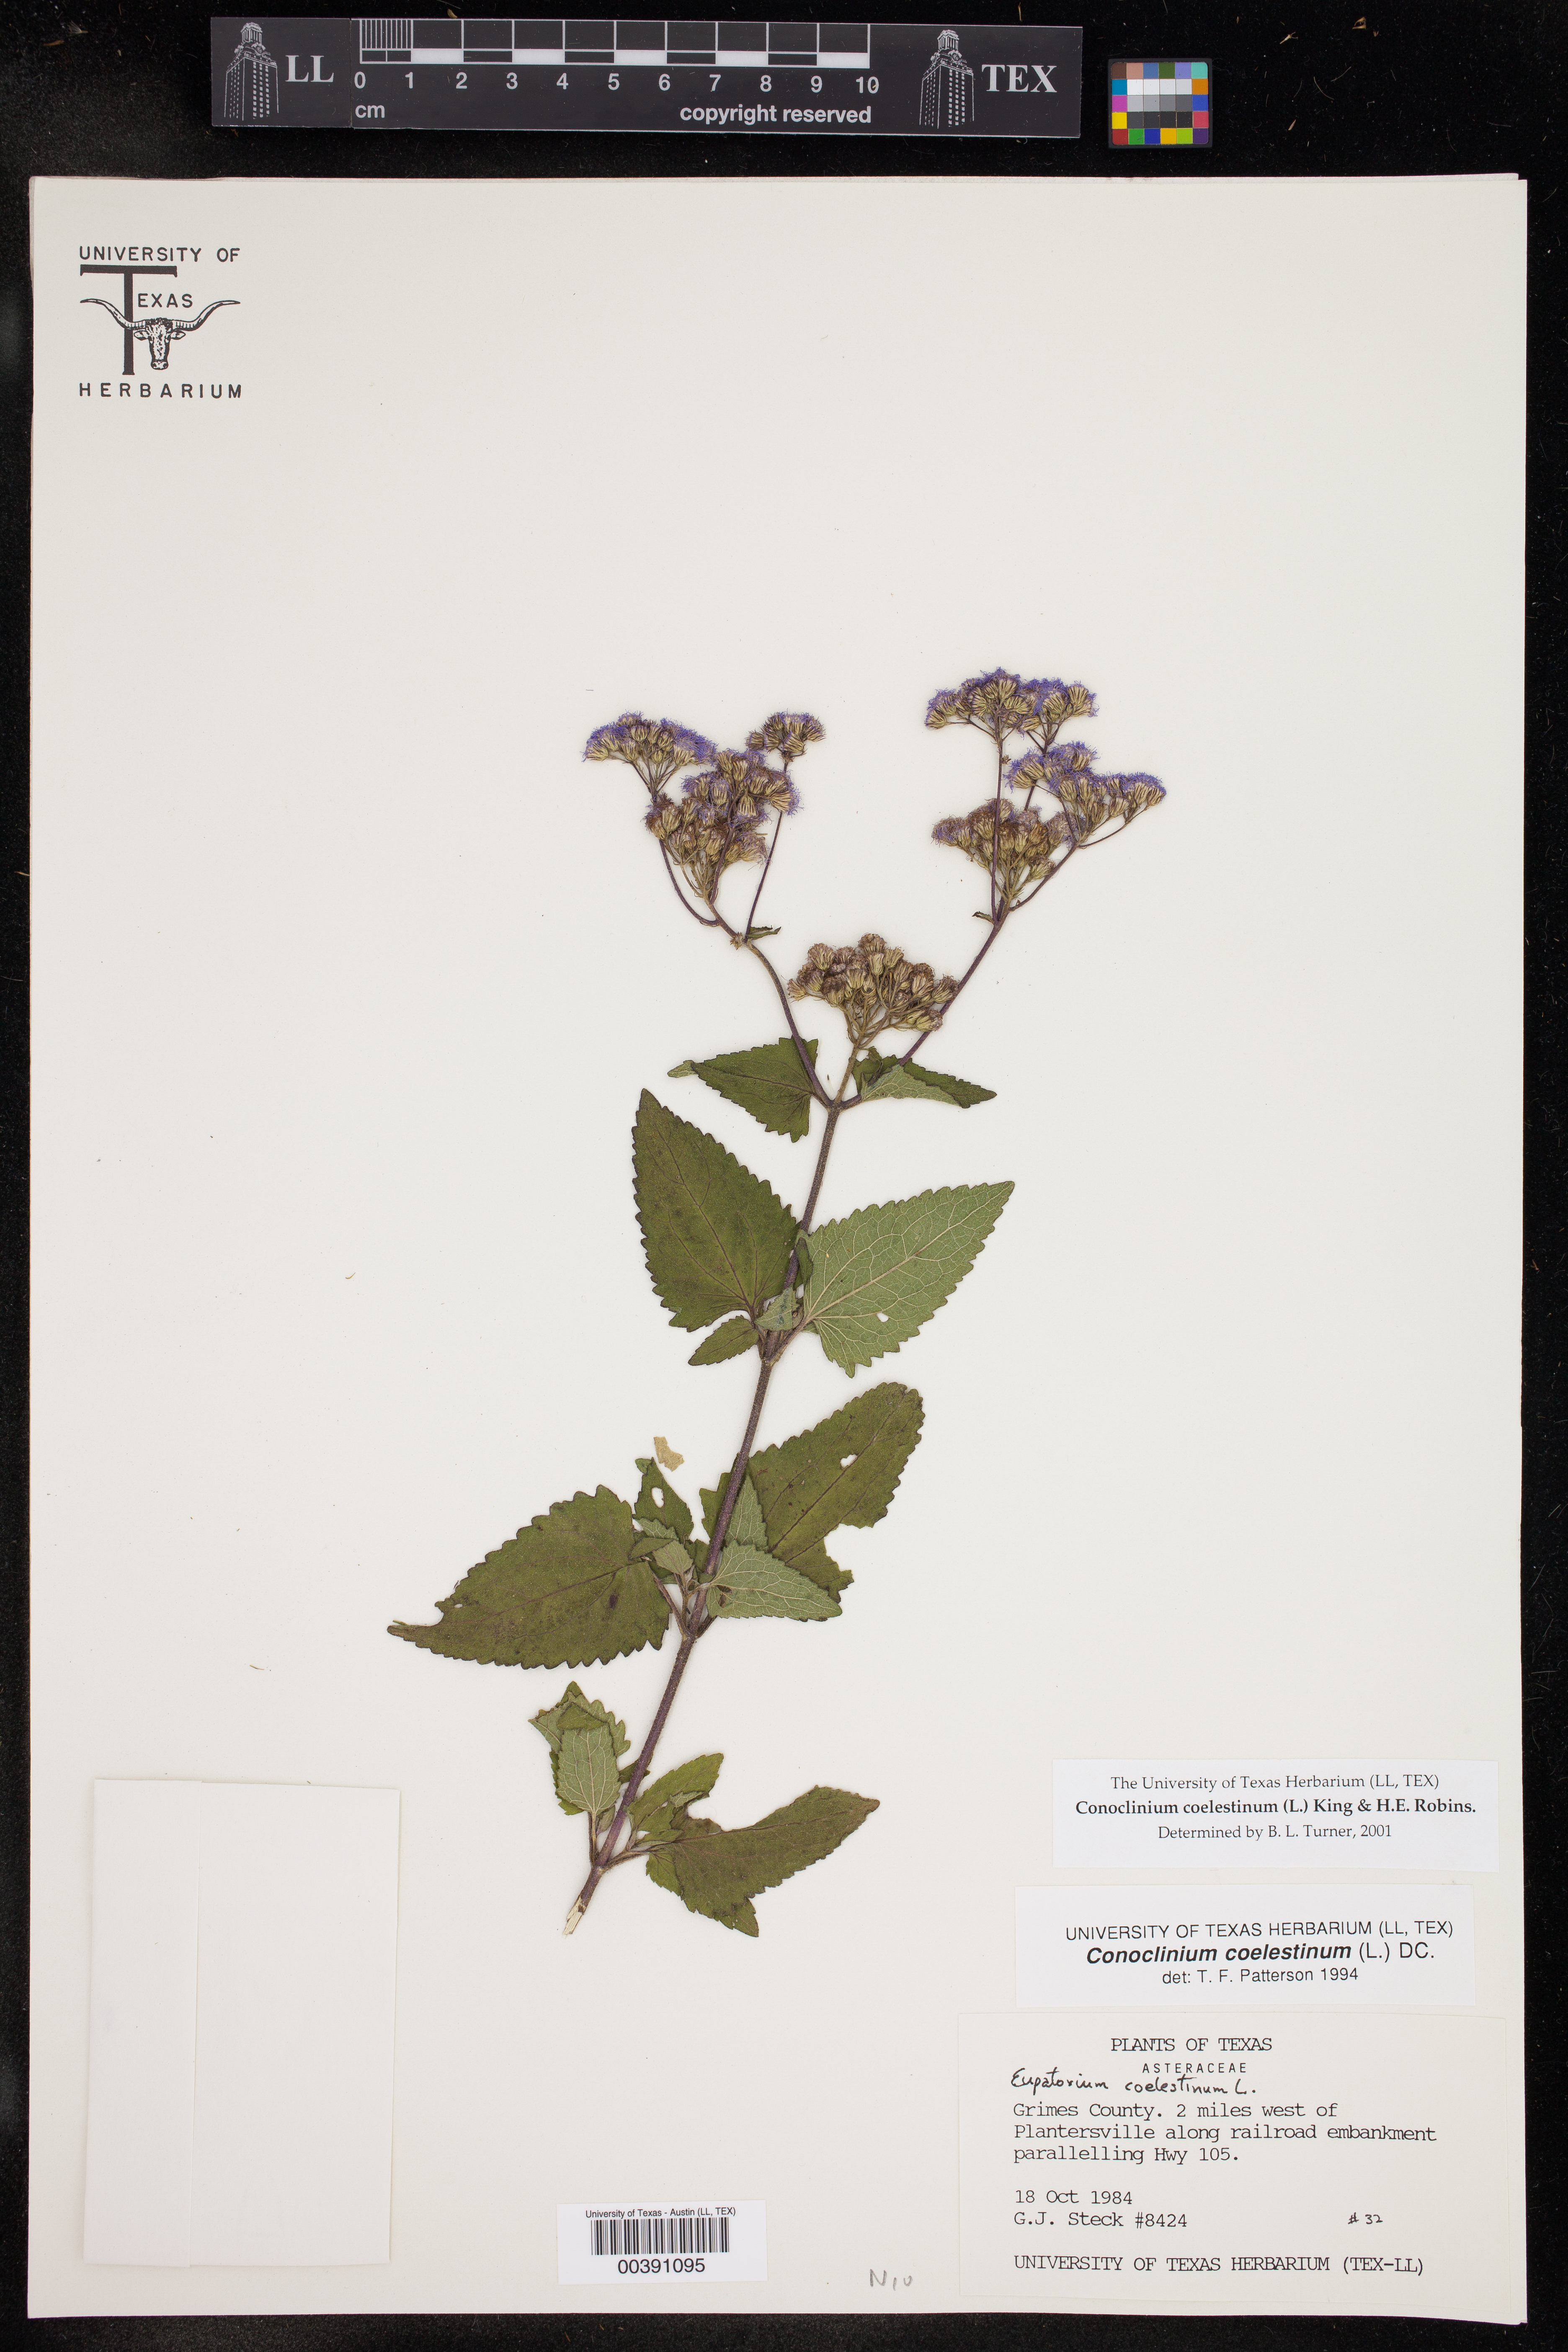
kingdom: Plantae
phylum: Tracheophyta
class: Magnoliopsida
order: Asterales
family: Asteraceae
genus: Conoclinium
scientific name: Conoclinium coelestinum
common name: Blue mistflower
